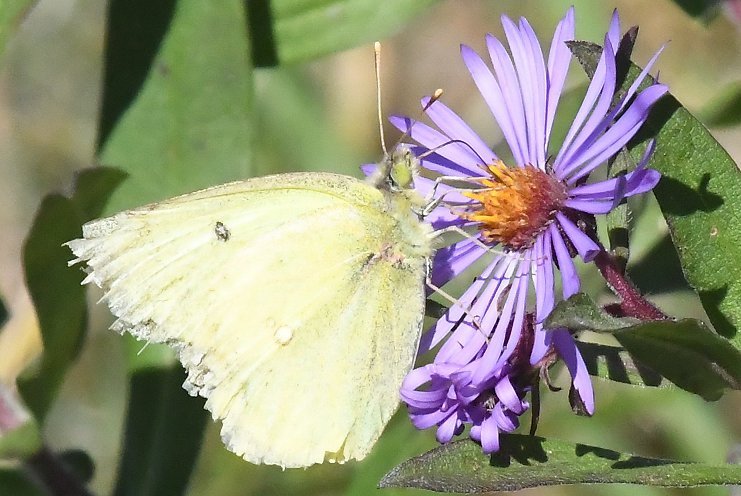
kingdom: Animalia
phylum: Arthropoda
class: Insecta
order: Lepidoptera
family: Pieridae
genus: Colias
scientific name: Colias philodice
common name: Clouded Sulphur
